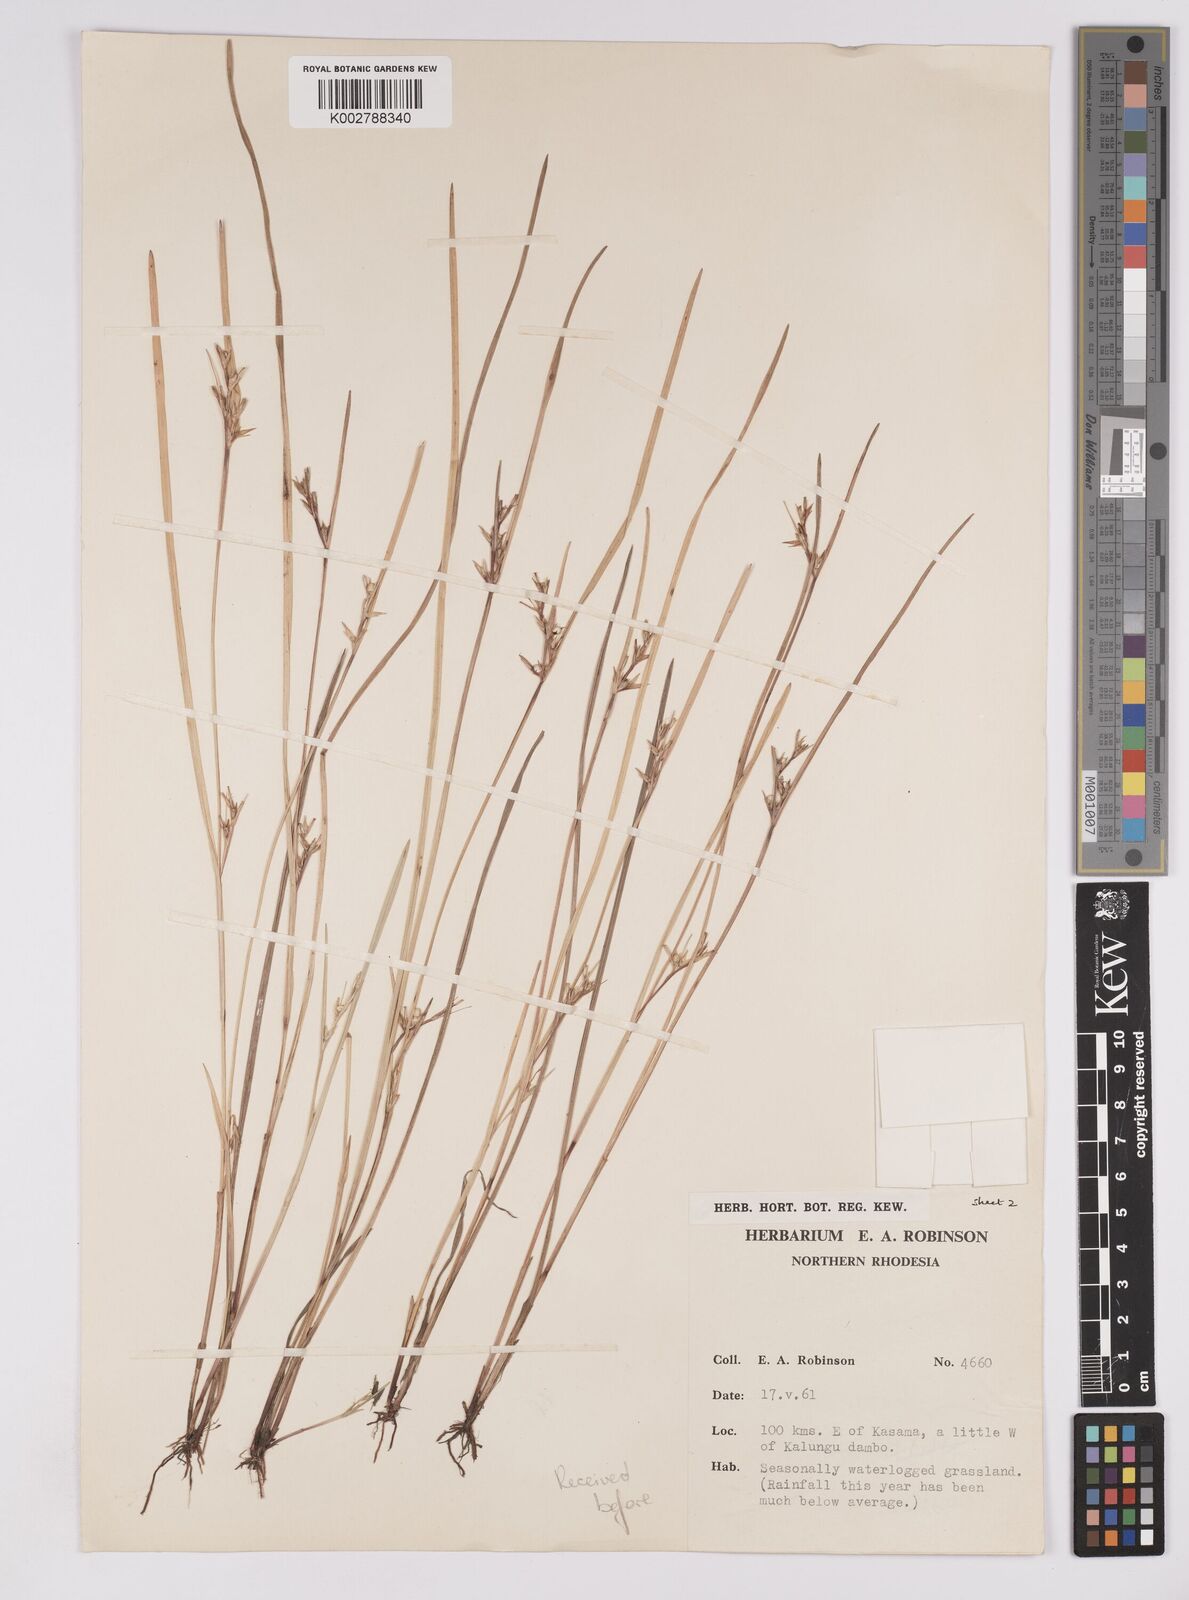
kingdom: Plantae
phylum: Tracheophyta
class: Liliopsida
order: Poales
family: Cyperaceae
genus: Scleria
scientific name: Scleria lucentinigricans
